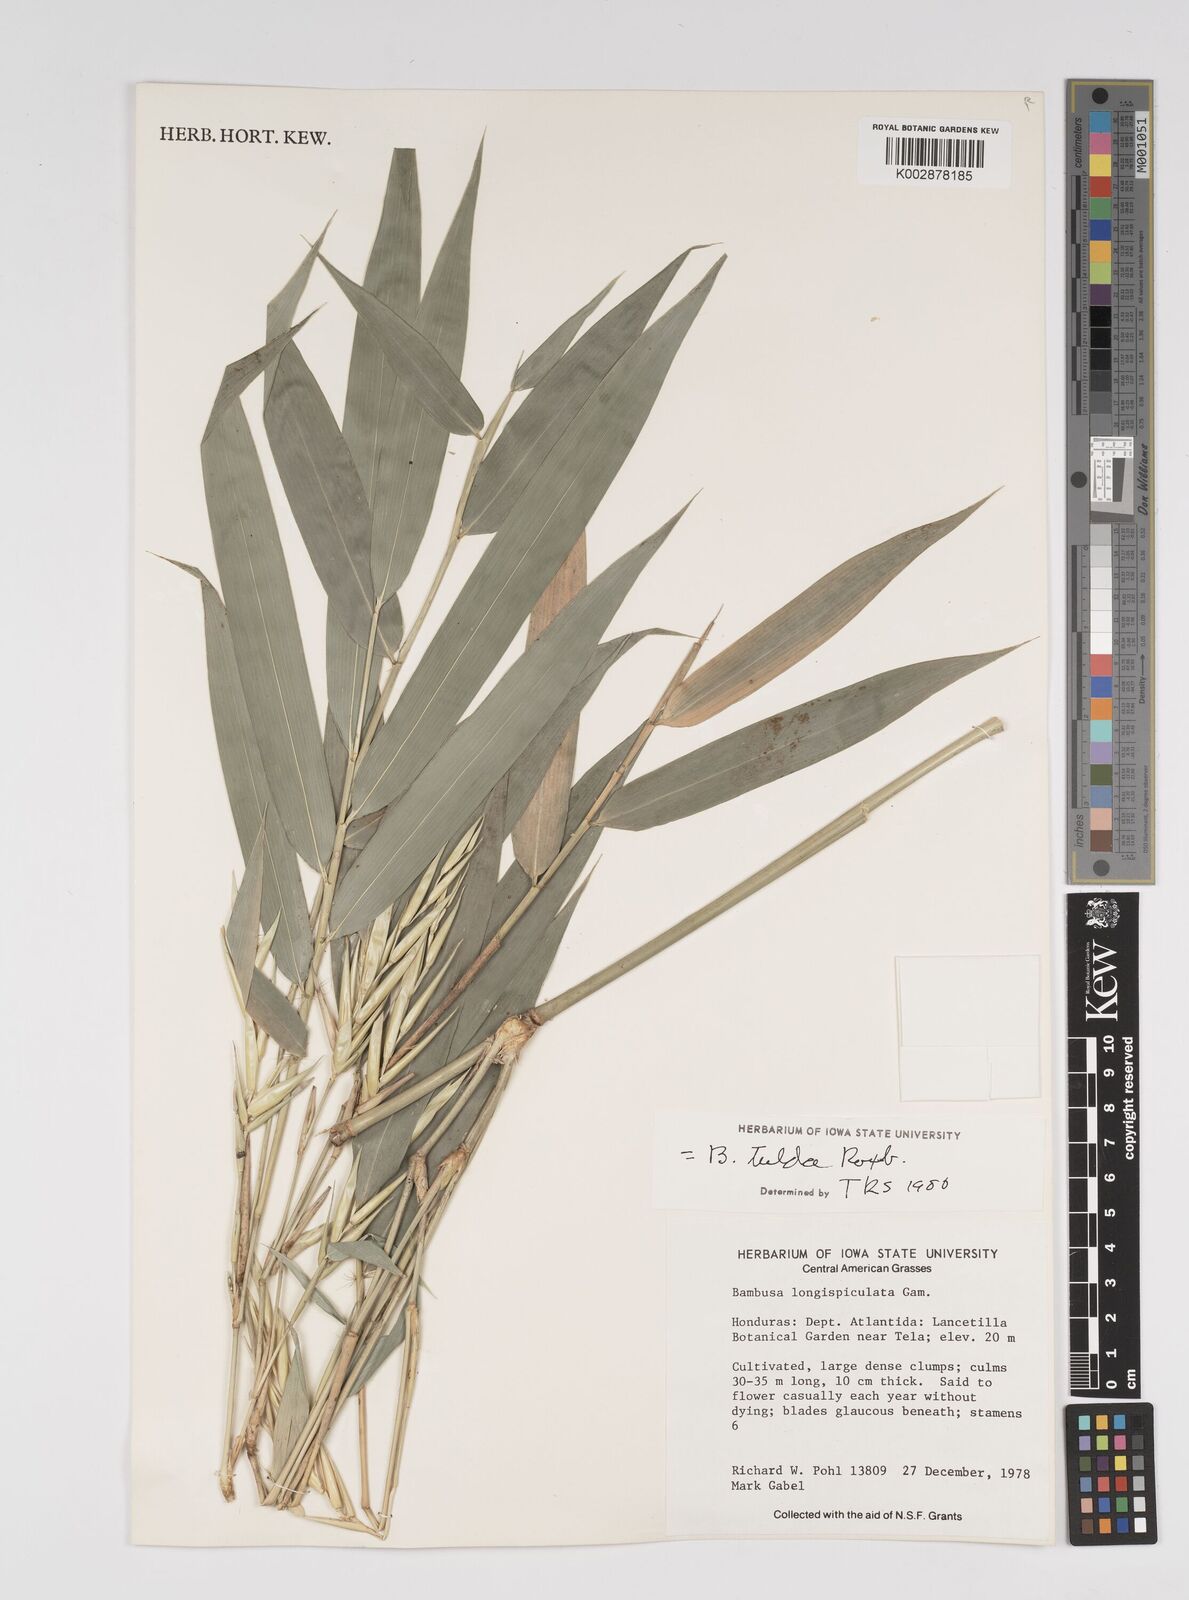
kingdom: Plantae
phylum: Tracheophyta
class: Liliopsida
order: Poales
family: Poaceae
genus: Bambusa
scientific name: Bambusa
